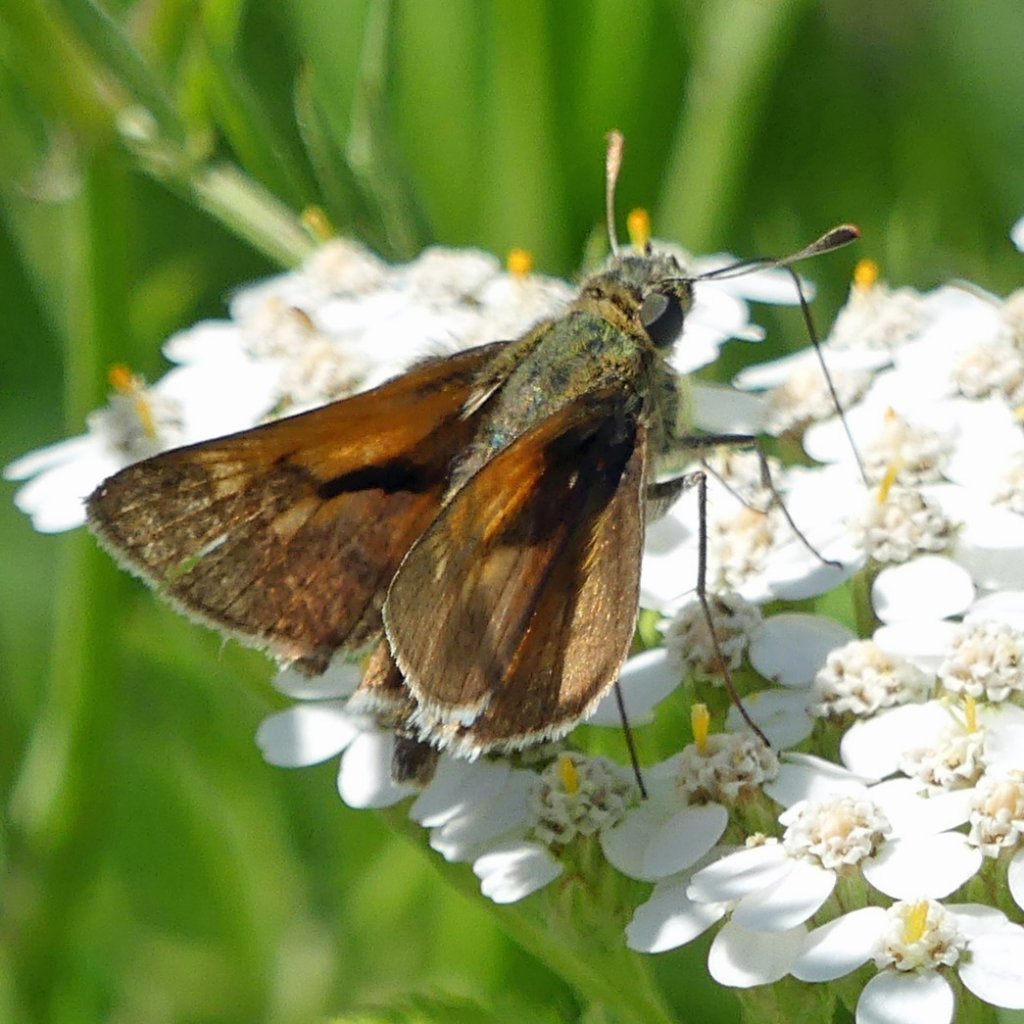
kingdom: Animalia
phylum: Arthropoda
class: Insecta
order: Lepidoptera
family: Hesperiidae
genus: Polites
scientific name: Polites
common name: Crossline Skipper
